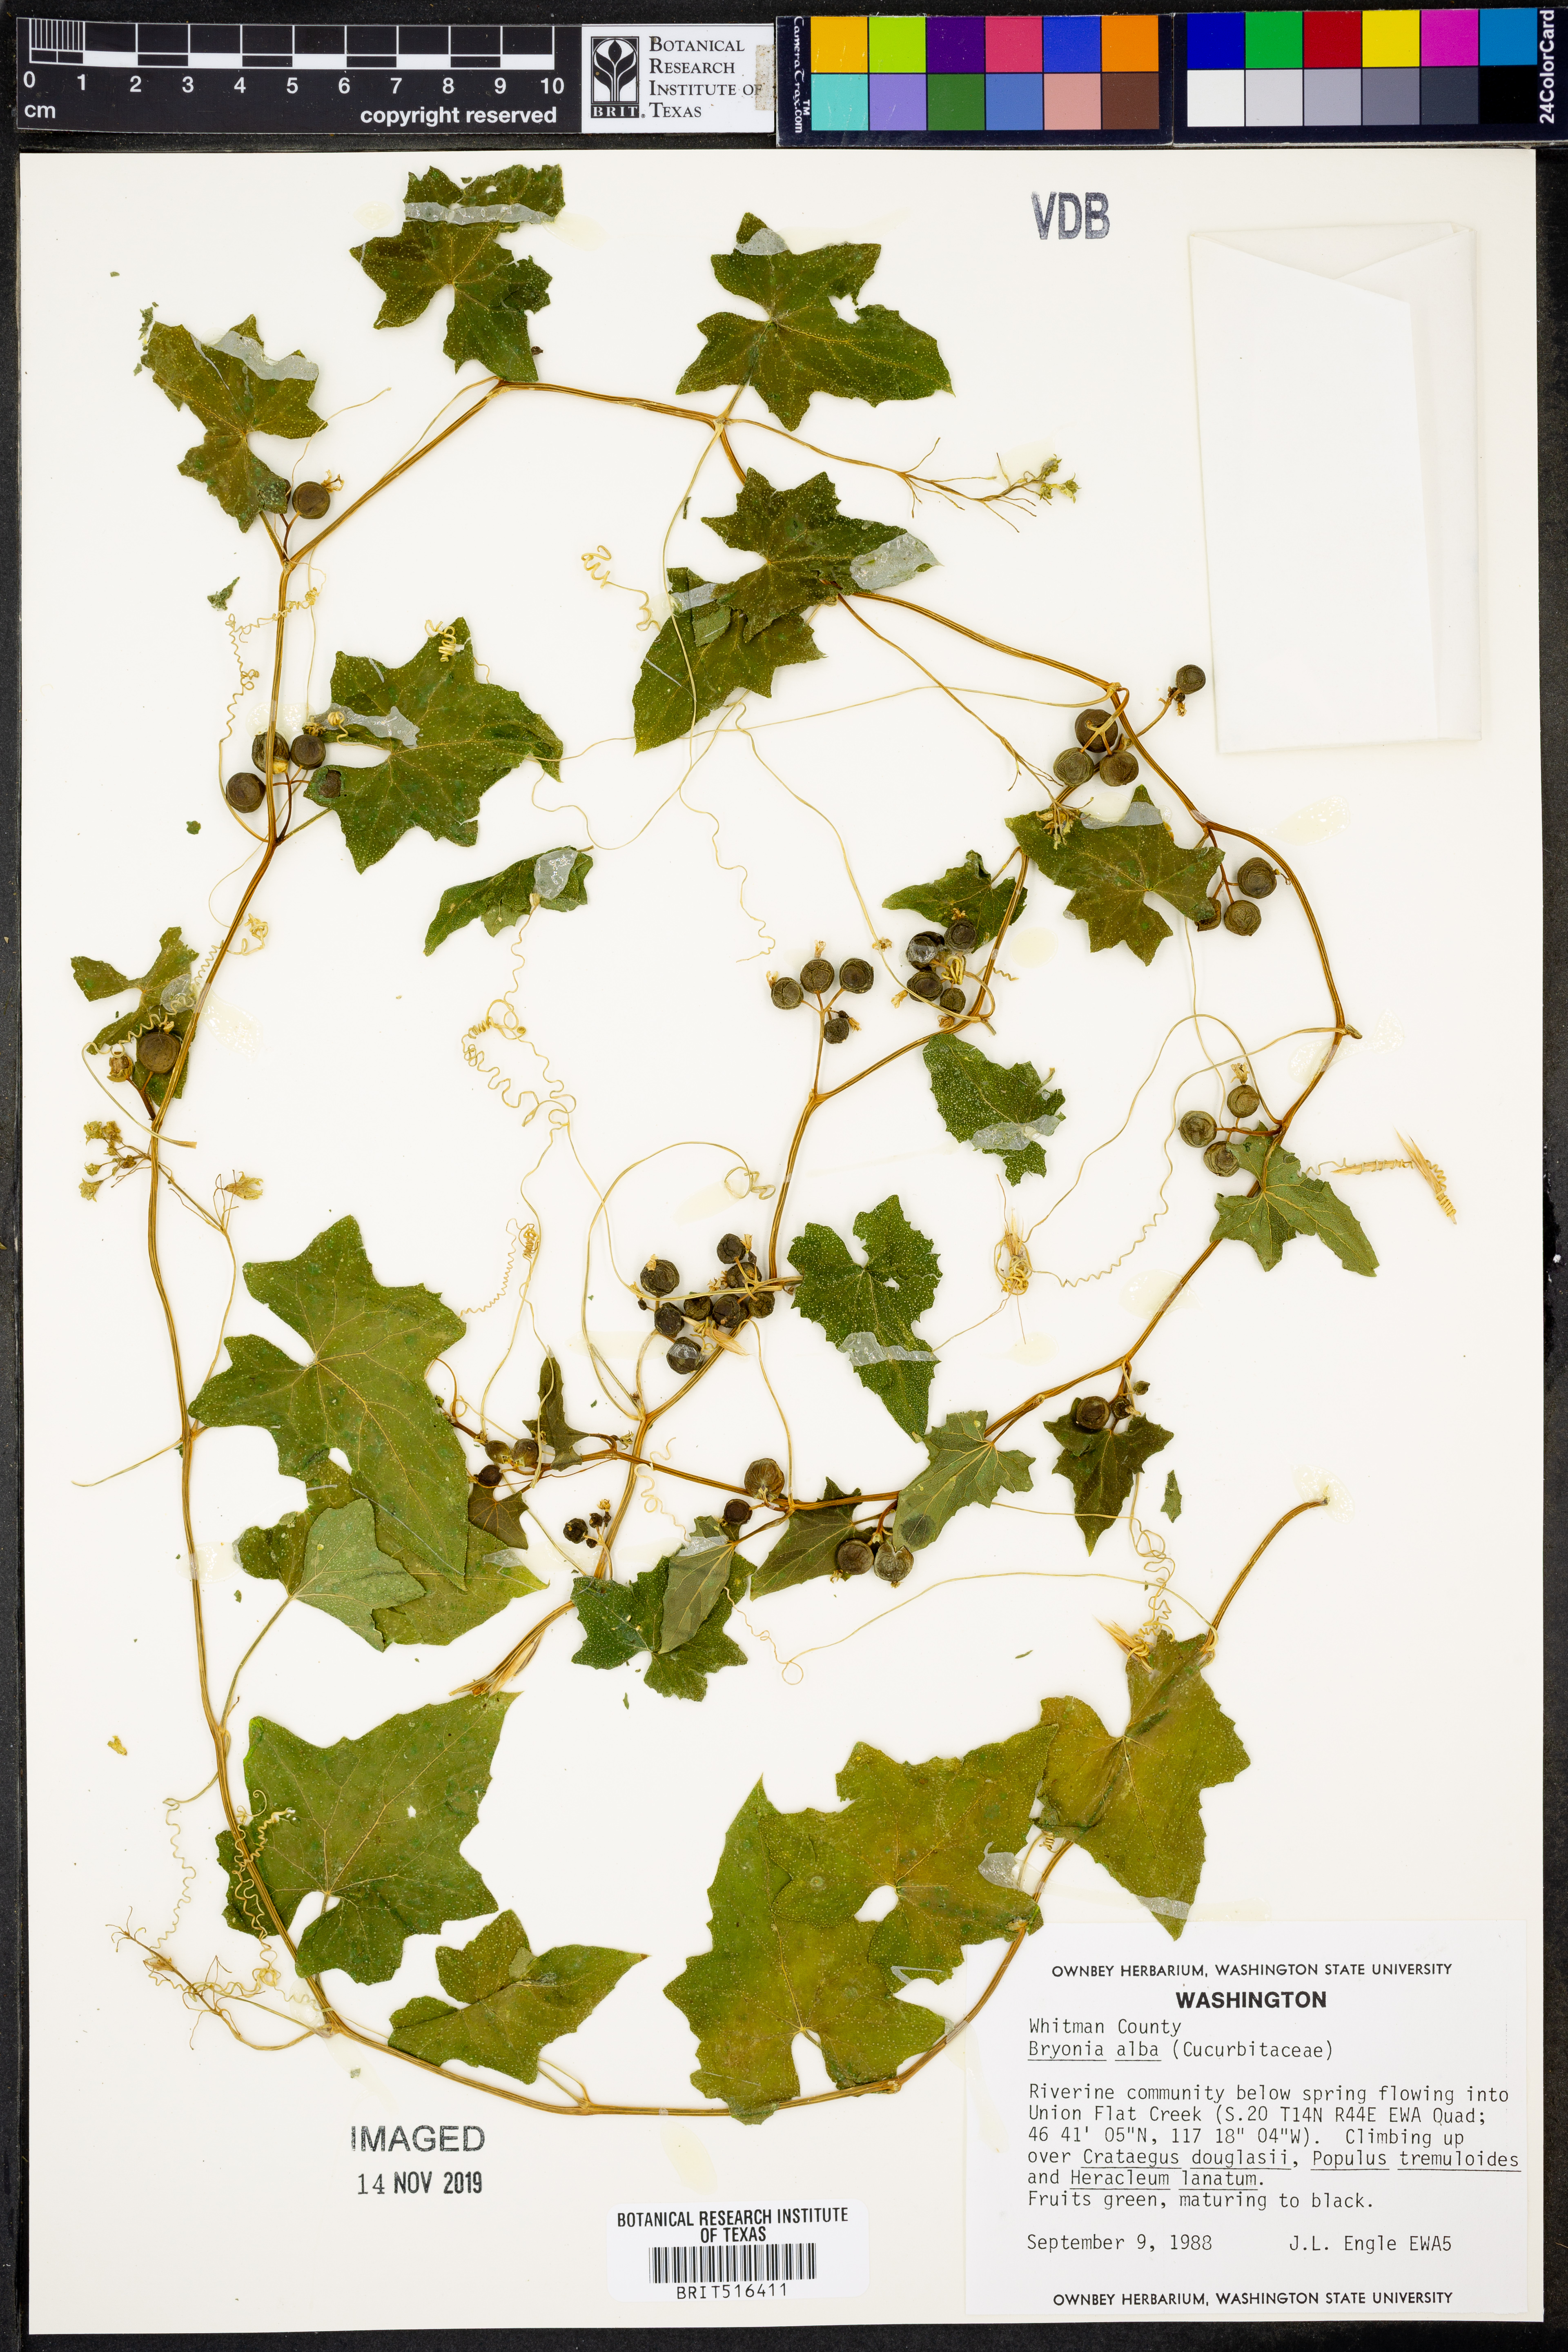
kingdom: Plantae
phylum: Tracheophyta
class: Magnoliopsida
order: Cucurbitales
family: Cucurbitaceae
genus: Bryonia
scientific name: Bryonia alba
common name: White bryony
